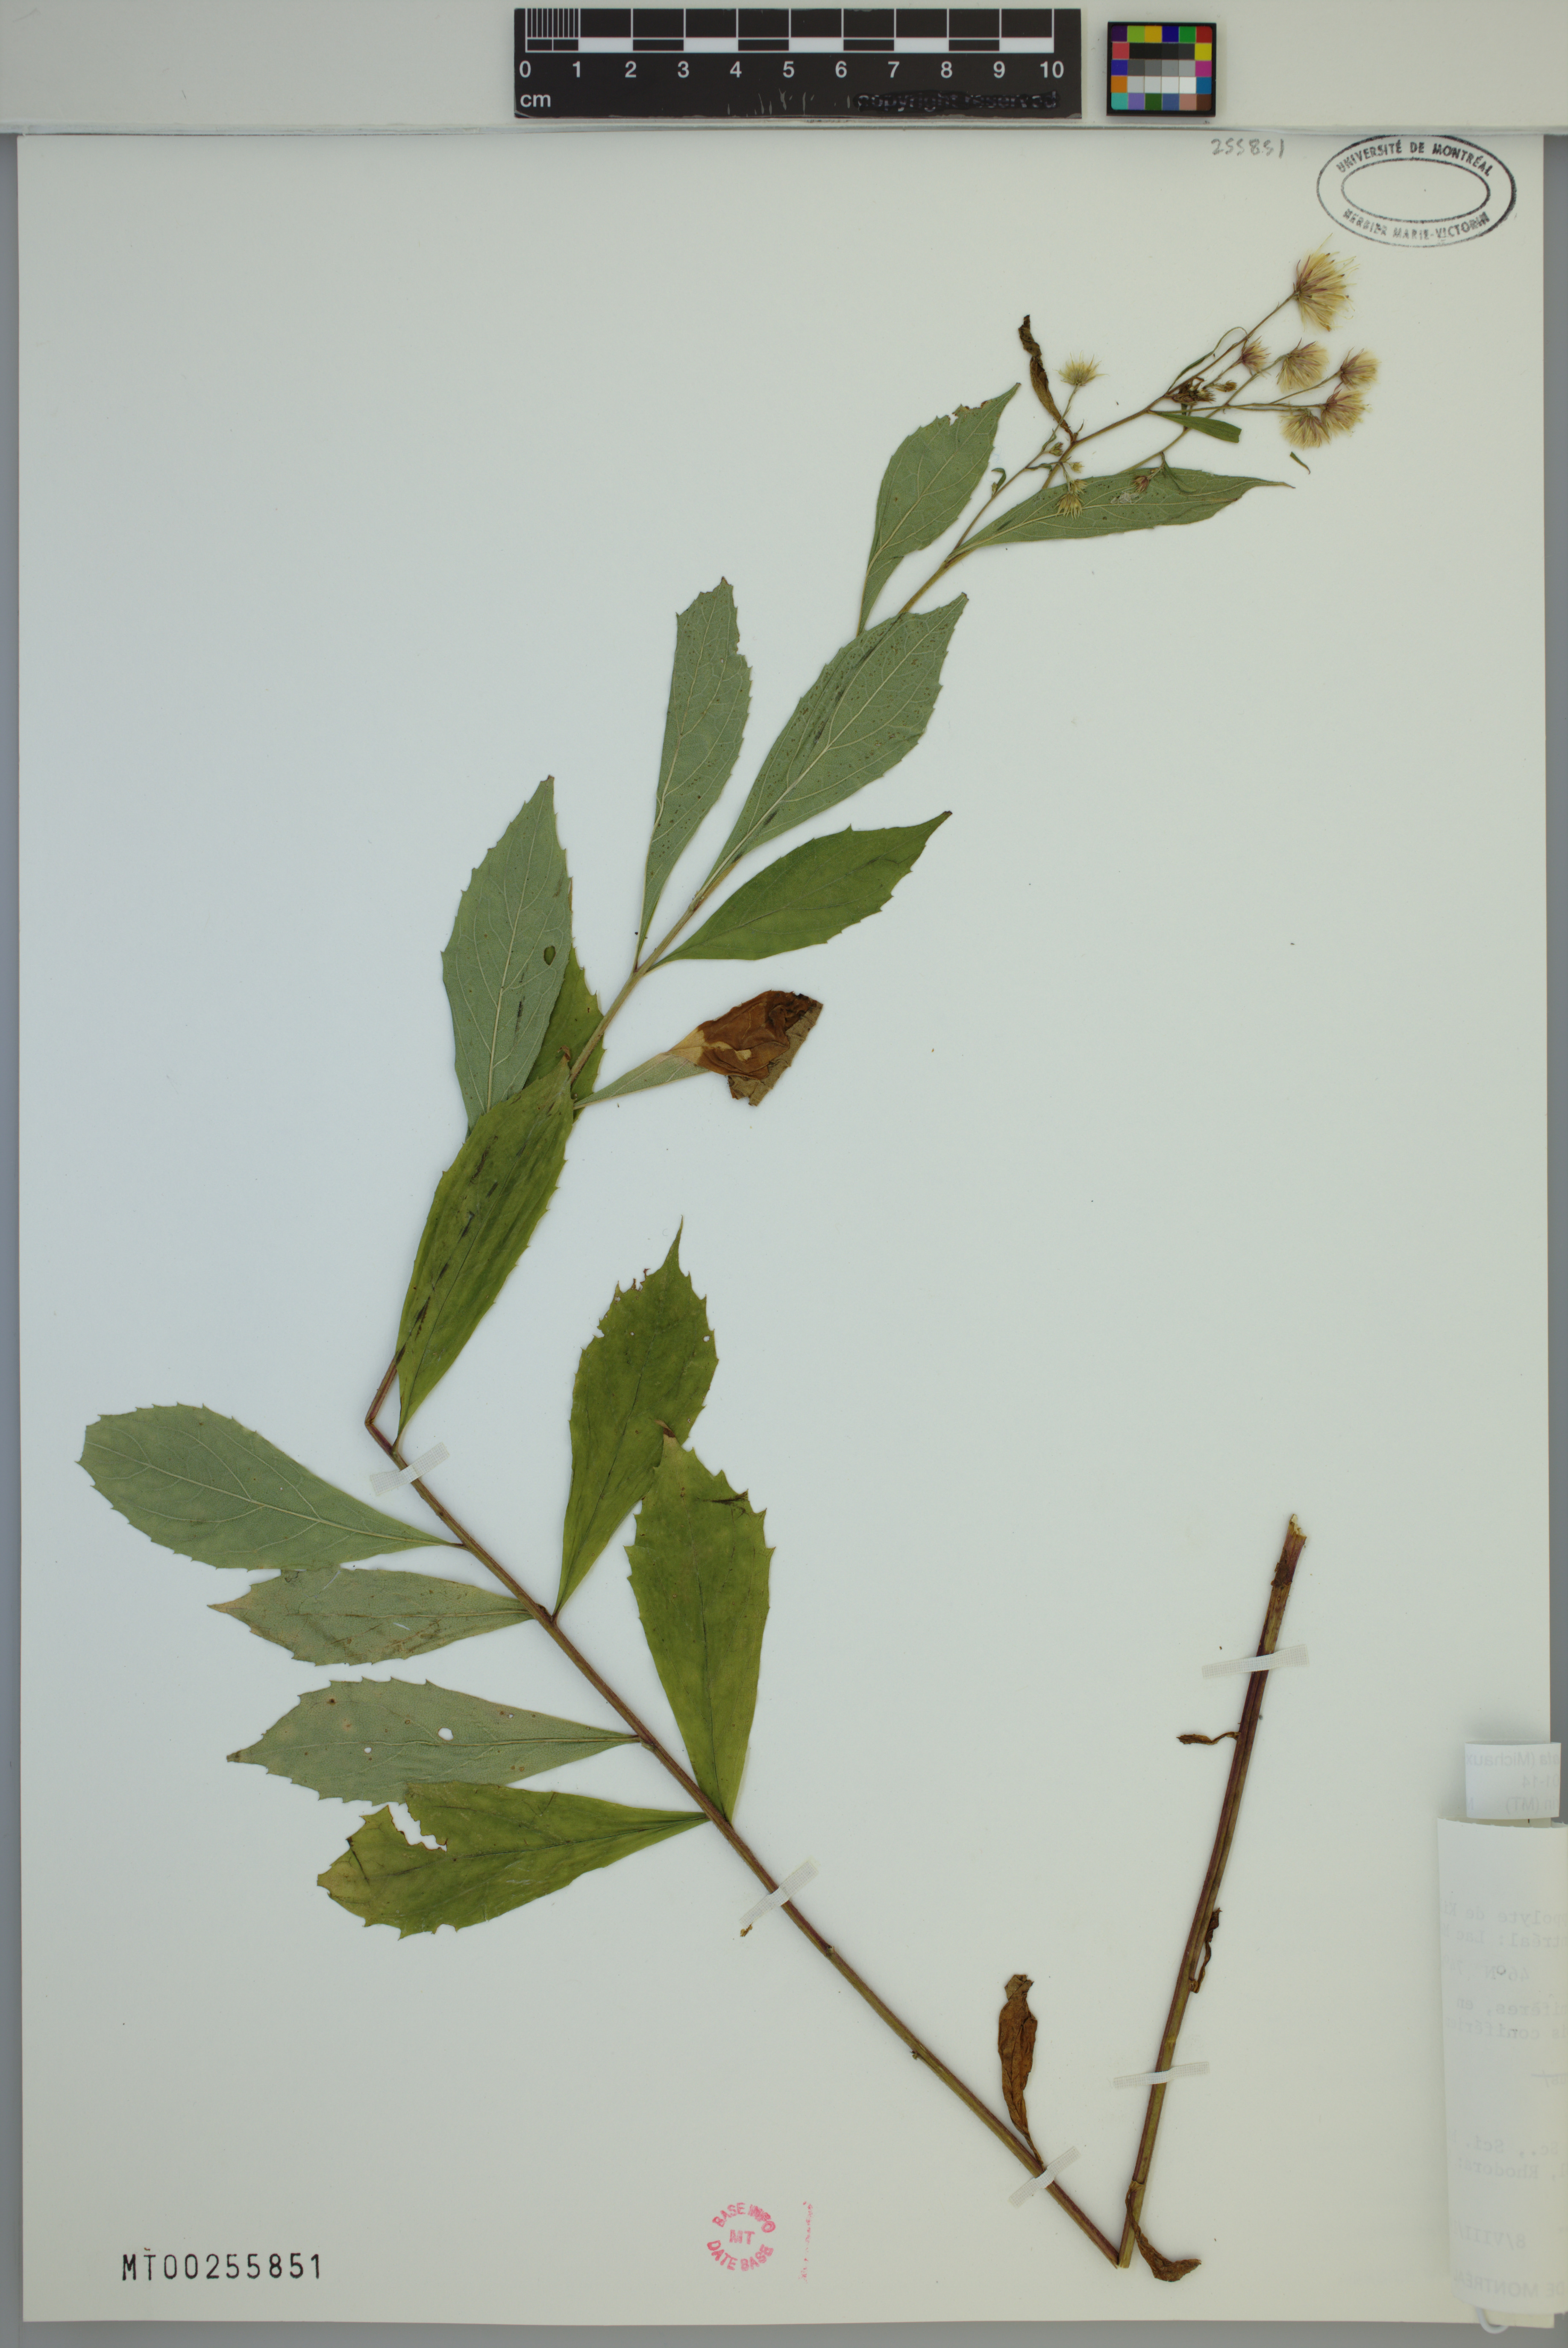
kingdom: Plantae
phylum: Tracheophyta
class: Magnoliopsida
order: Asterales
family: Asteraceae
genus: Oclemena
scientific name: Oclemena acuminata
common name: Mountain aster
